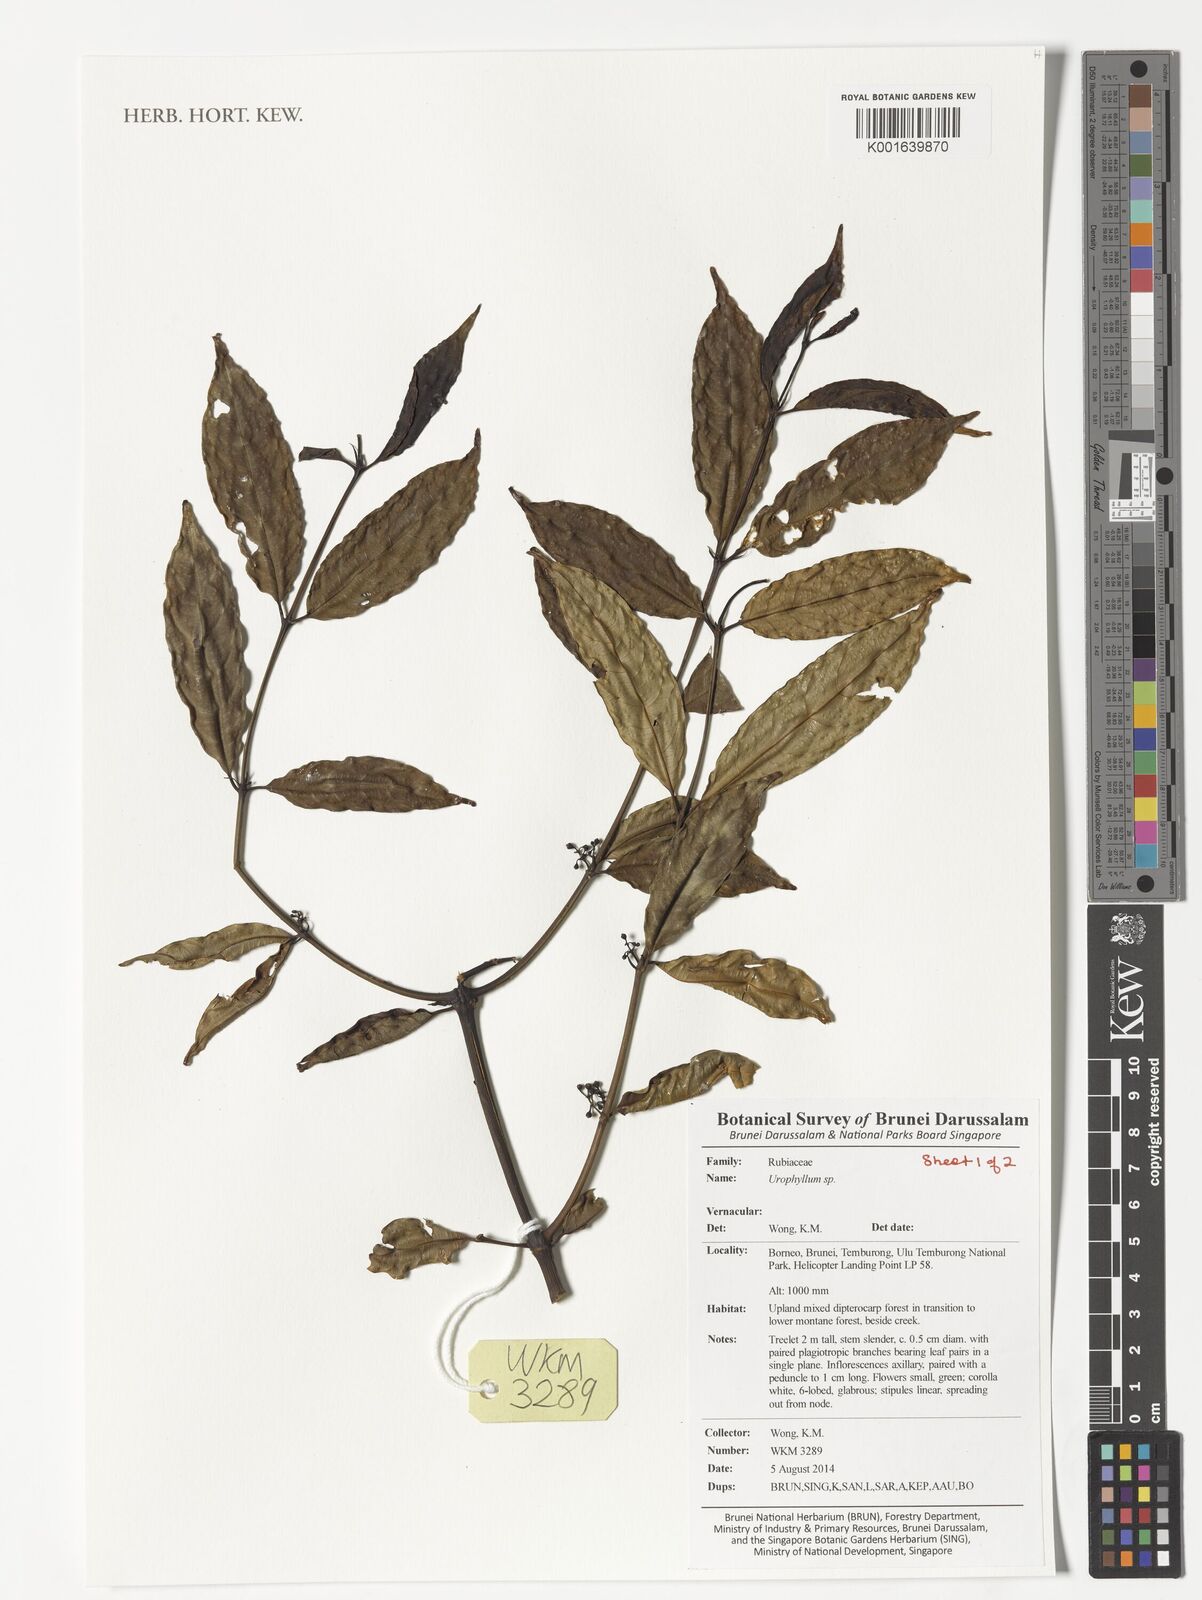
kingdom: Plantae
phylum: Tracheophyta
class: Magnoliopsida
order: Gentianales
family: Rubiaceae
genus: Urophyllum
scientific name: Urophyllum
